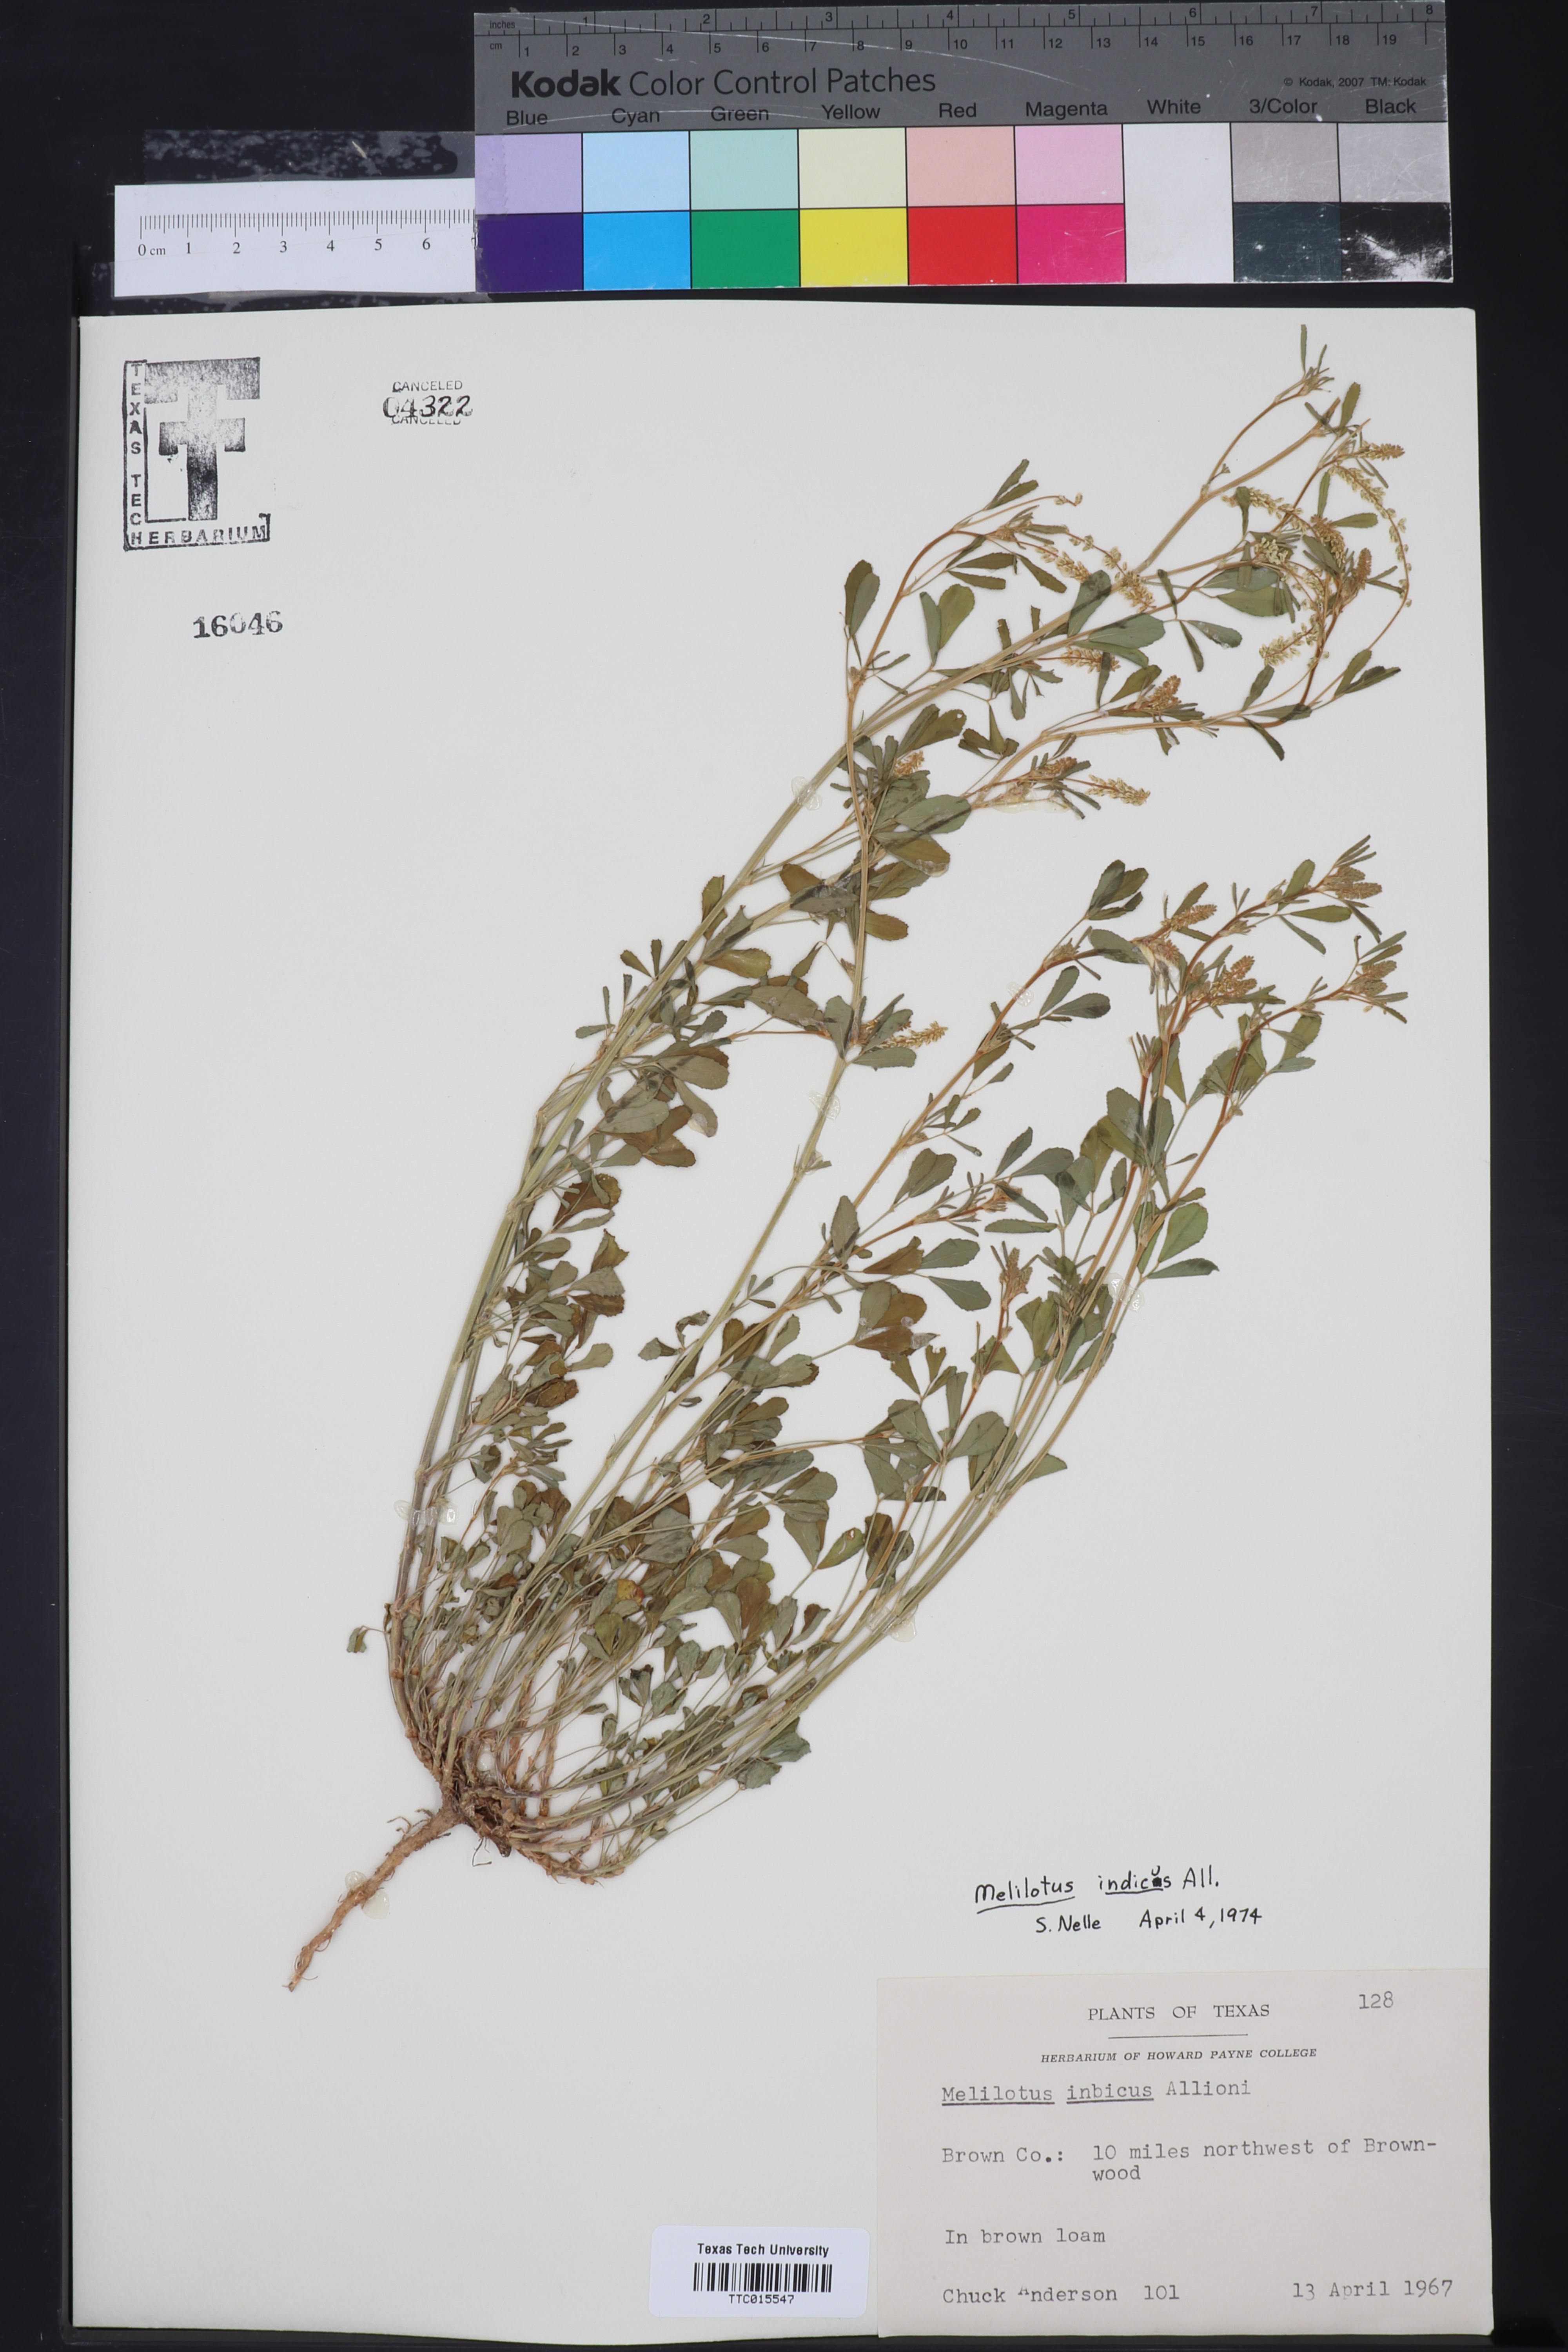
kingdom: Plantae
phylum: Tracheophyta
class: Magnoliopsida
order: Fabales
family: Fabaceae
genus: Melilotus
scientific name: Melilotus indicus
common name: Small melilot
